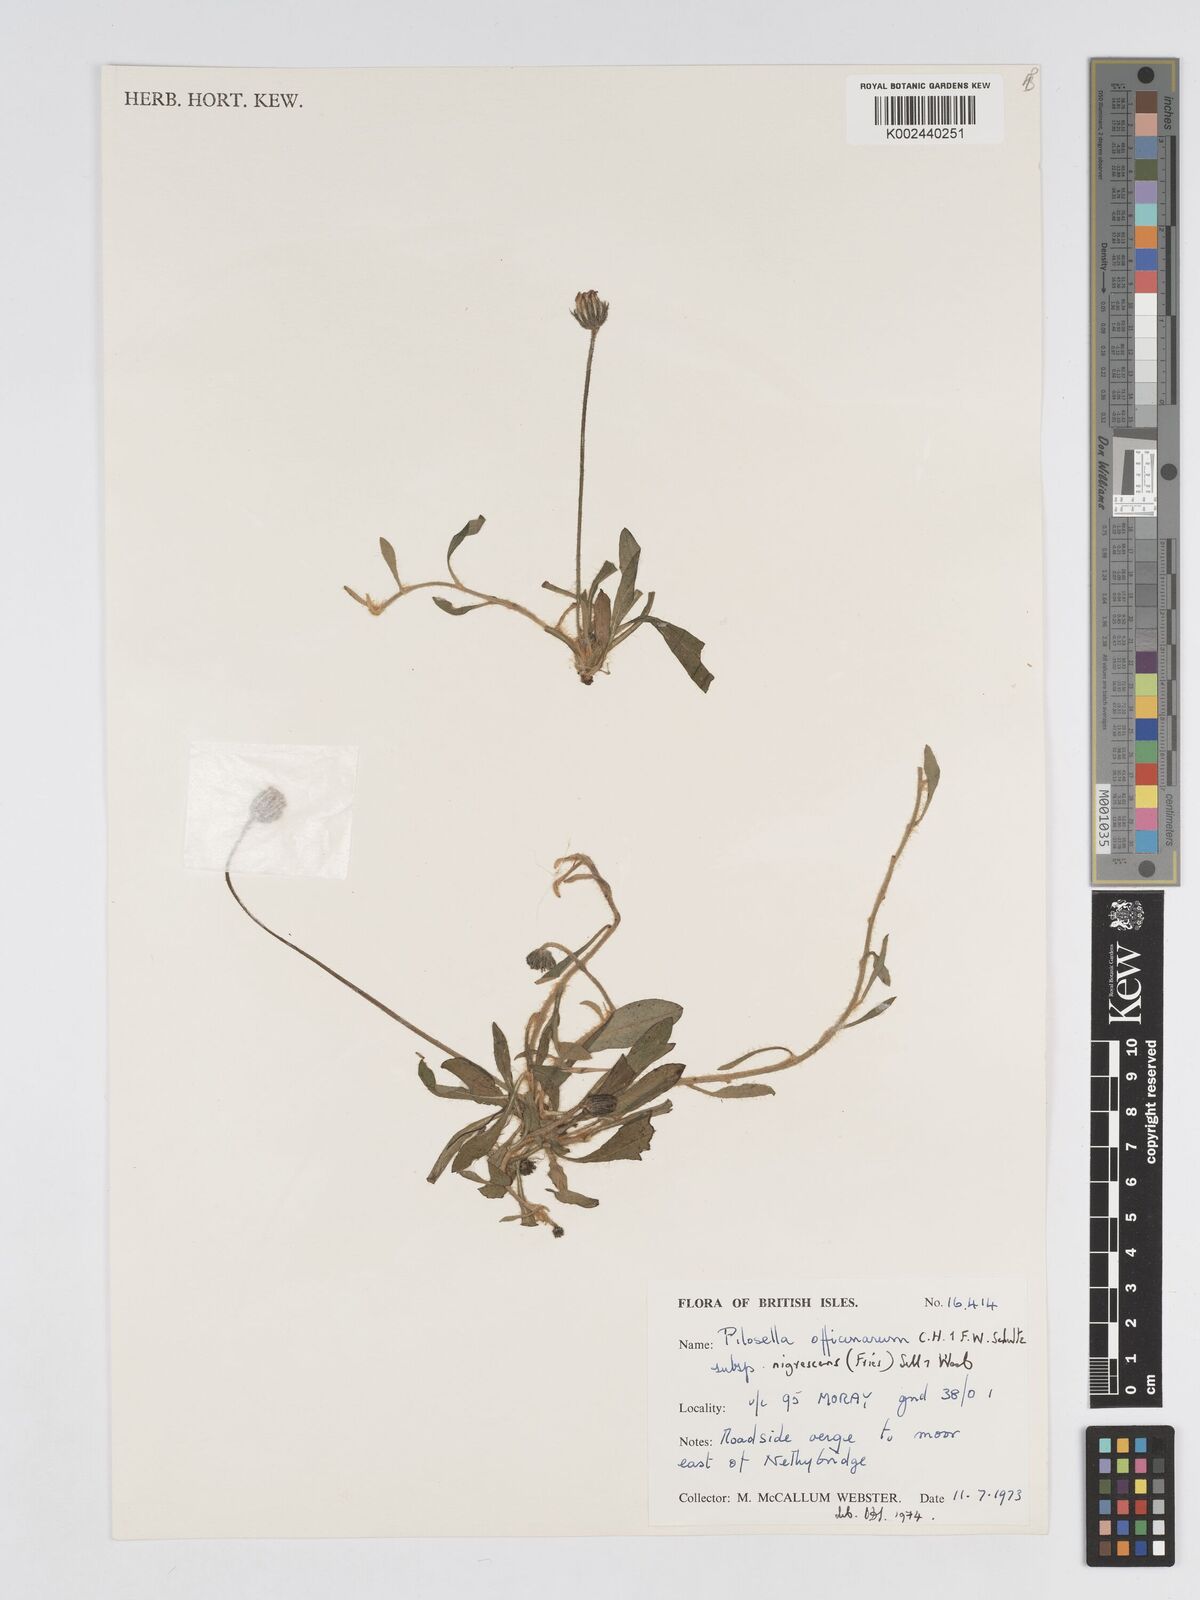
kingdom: Plantae
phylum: Tracheophyta
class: Magnoliopsida
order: Asterales
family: Asteraceae
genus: Pilosella
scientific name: Pilosella officinarum
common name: Mouse-ear hawkweed
